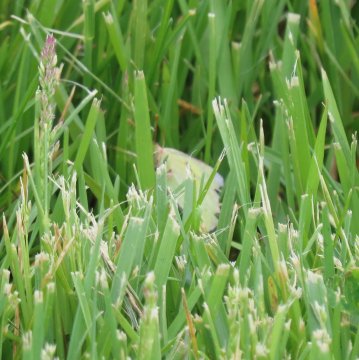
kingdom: Animalia
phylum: Arthropoda
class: Insecta
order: Lepidoptera
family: Pieridae
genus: Colias
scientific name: Colias eurytheme
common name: Orange Sulphur
